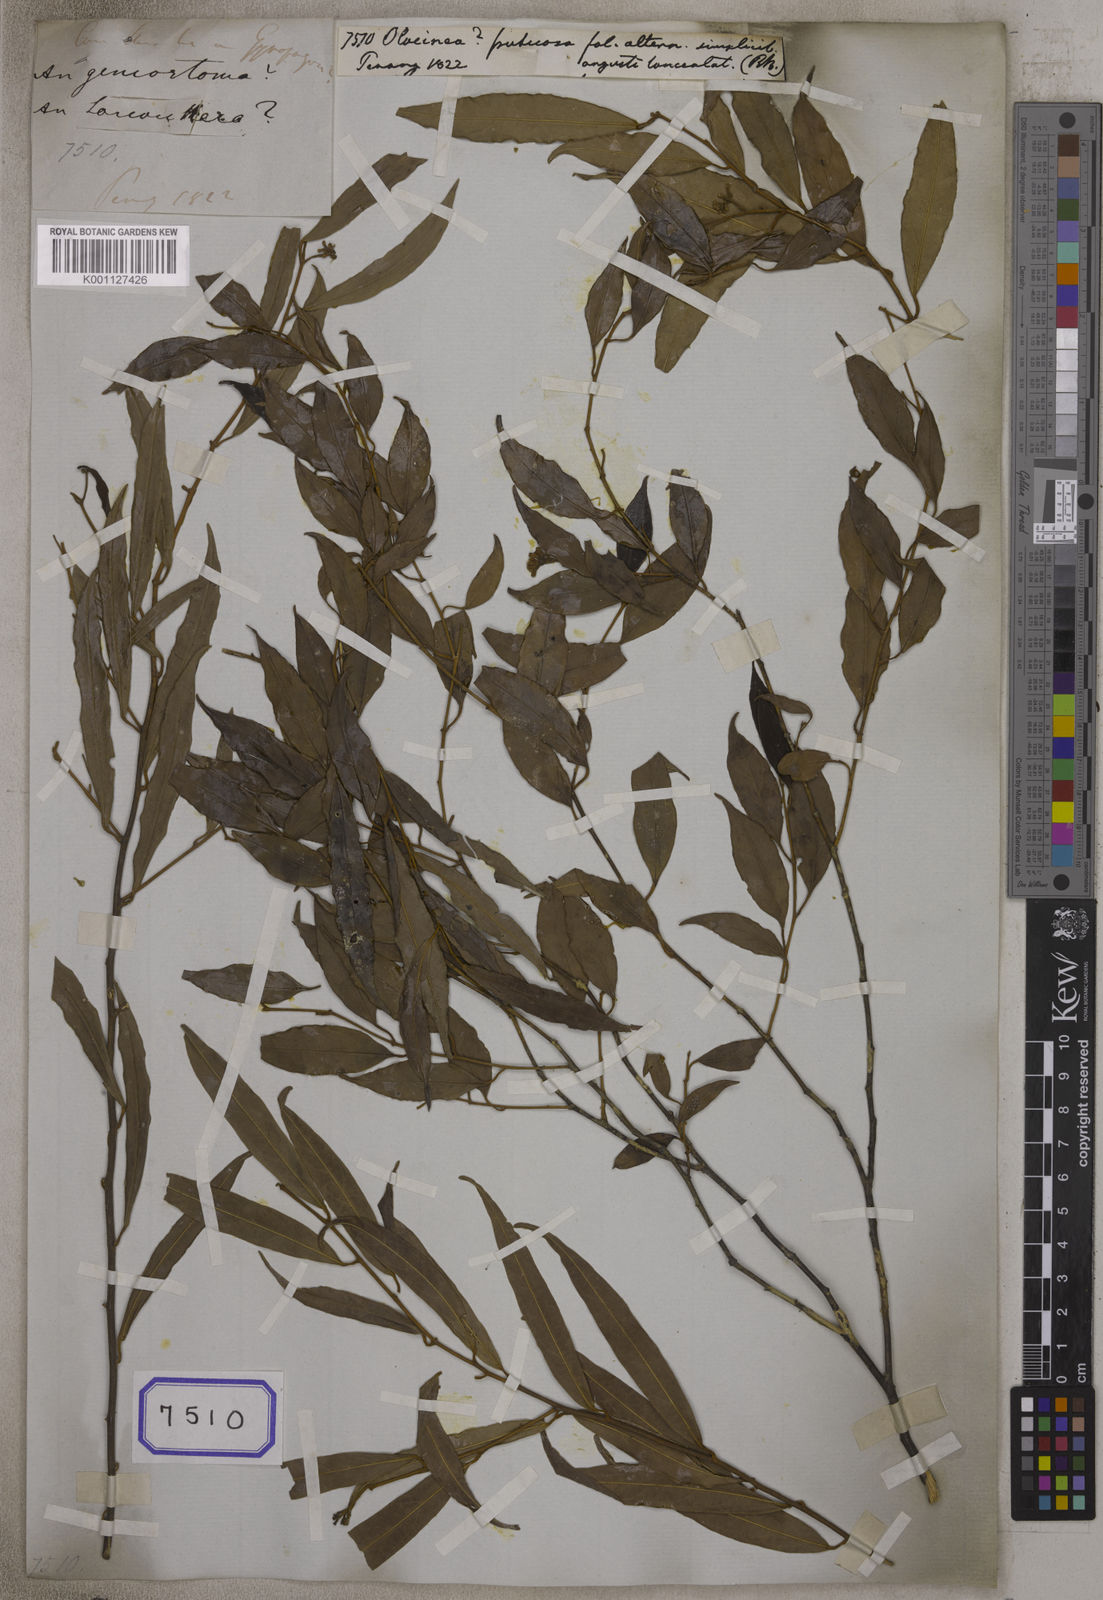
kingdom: Plantae
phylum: Tracheophyta
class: Magnoliopsida
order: Malpighiales
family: Violaceae
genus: Viola
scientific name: Viola
